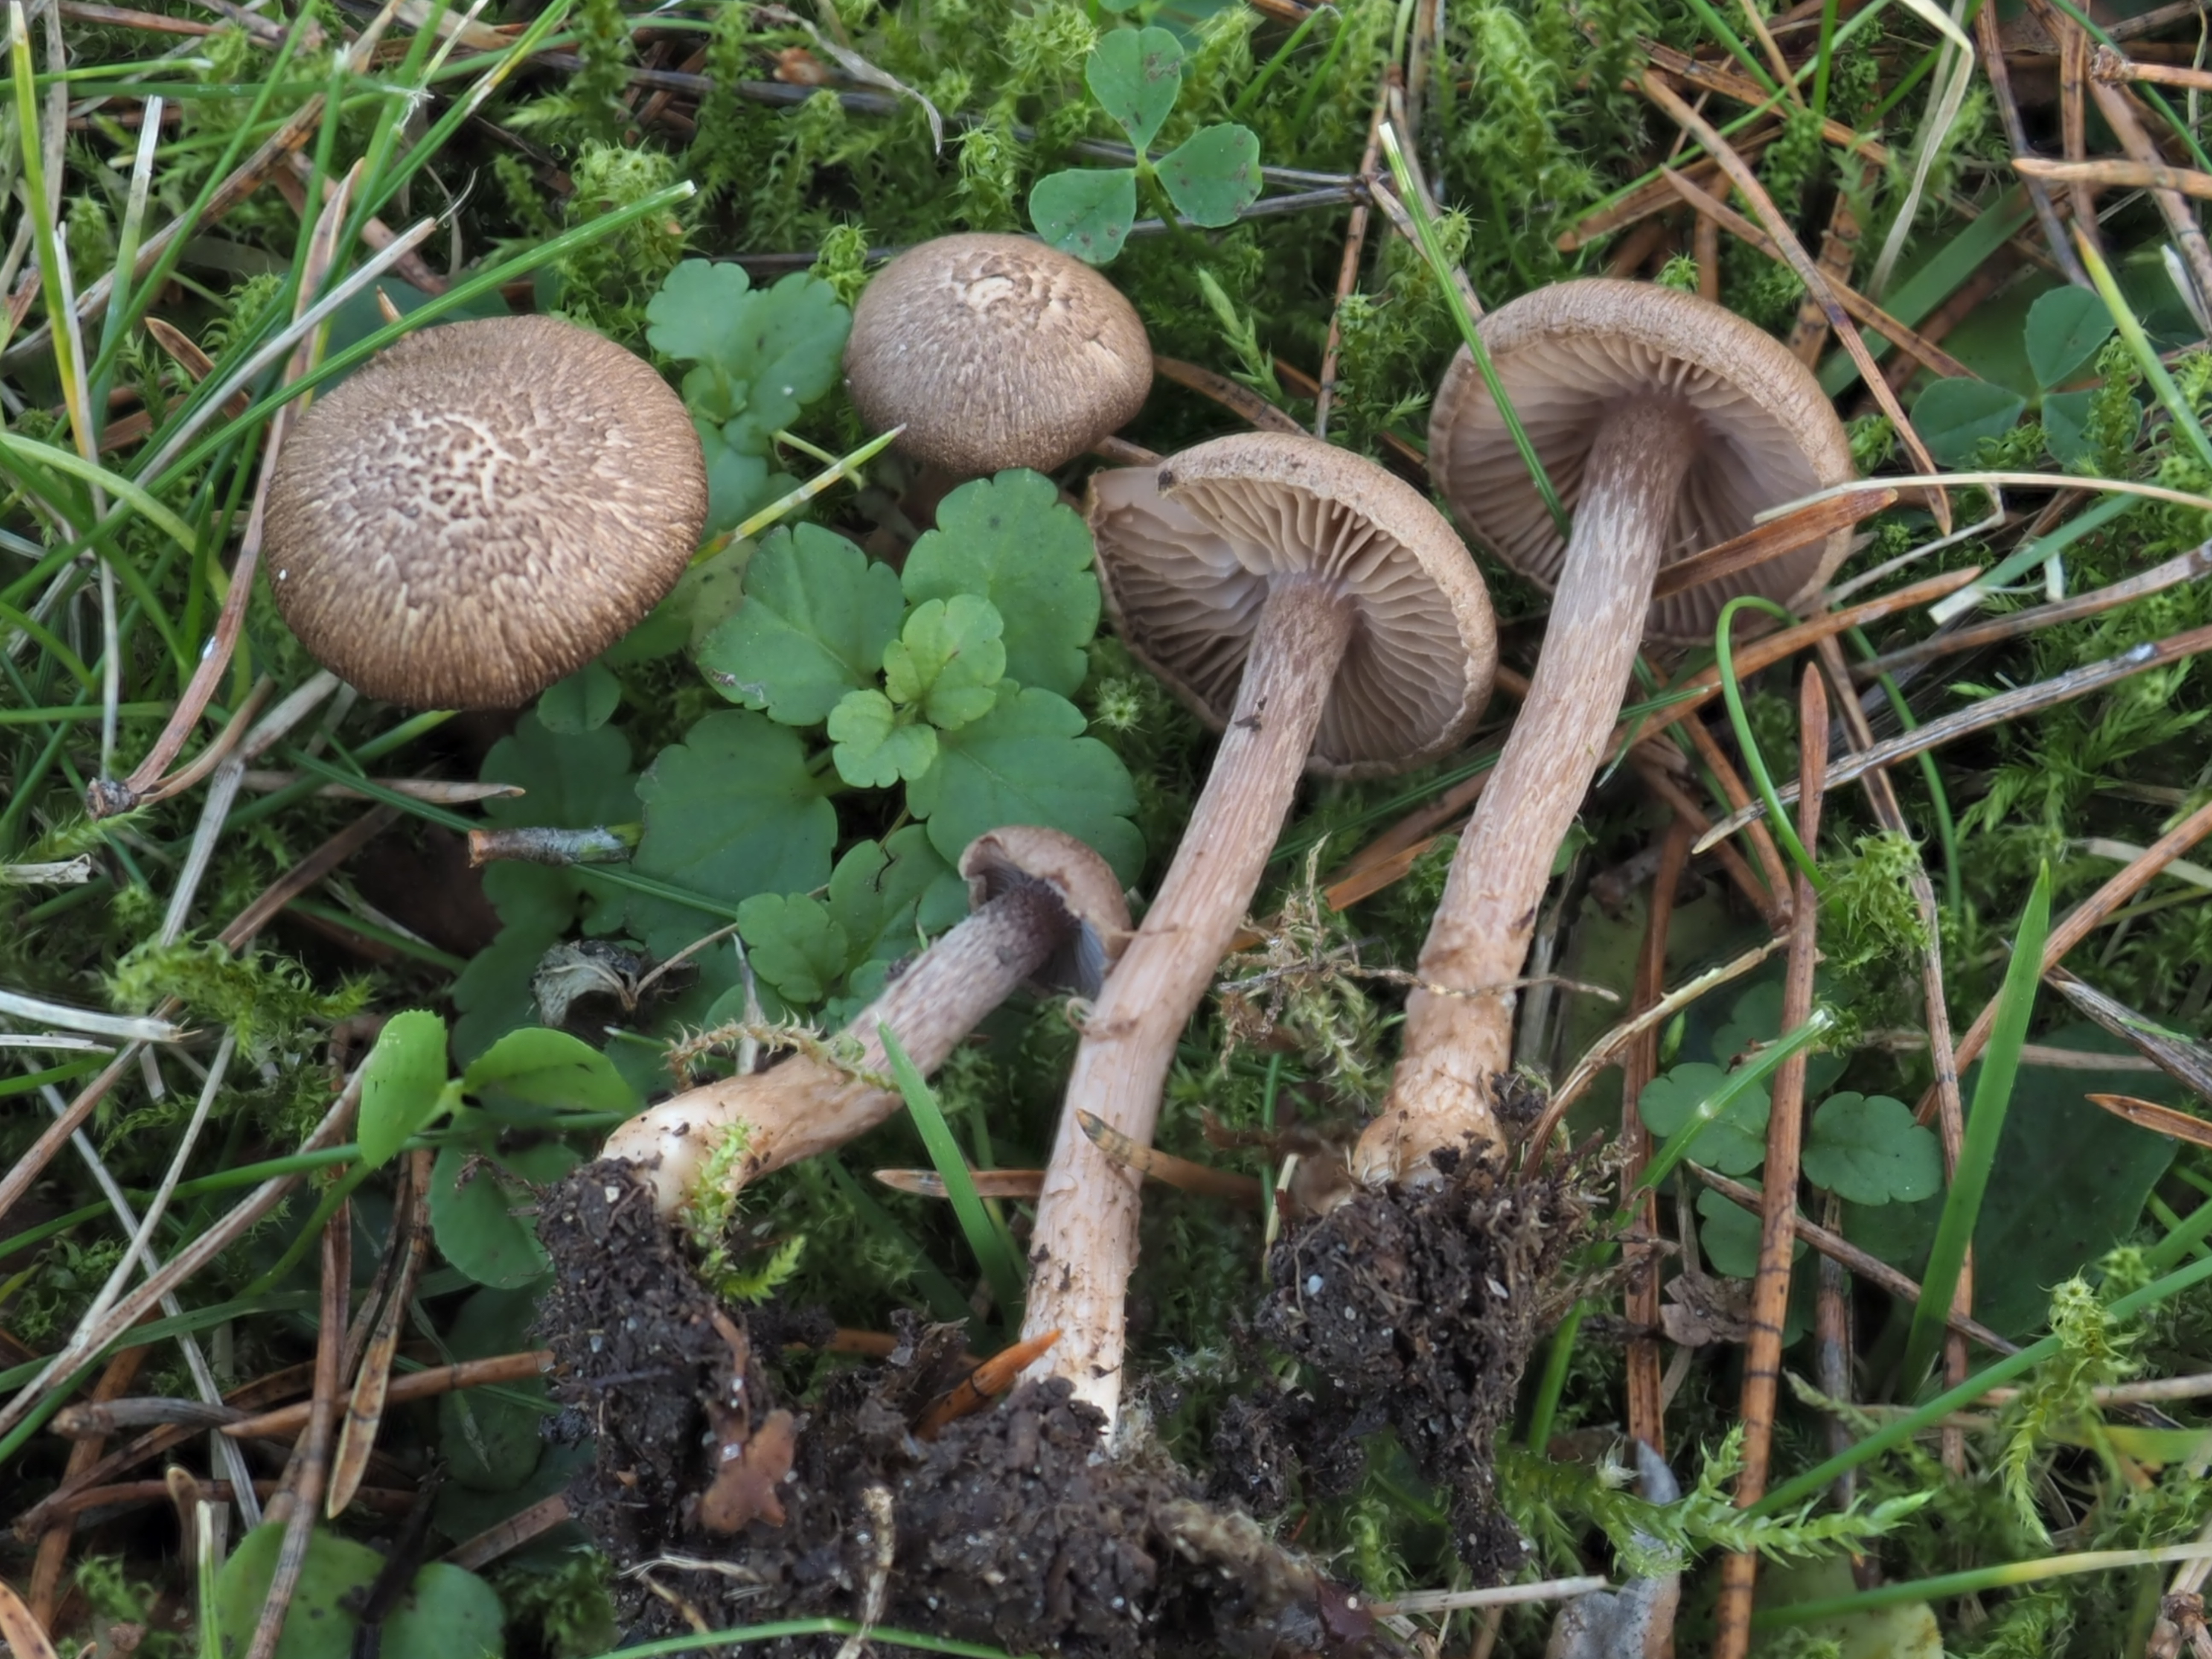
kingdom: Fungi
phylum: Basidiomycota
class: Agaricomycetes
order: Agaricales
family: Inocybaceae
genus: Inocybe
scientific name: Inocybe cincinnata
